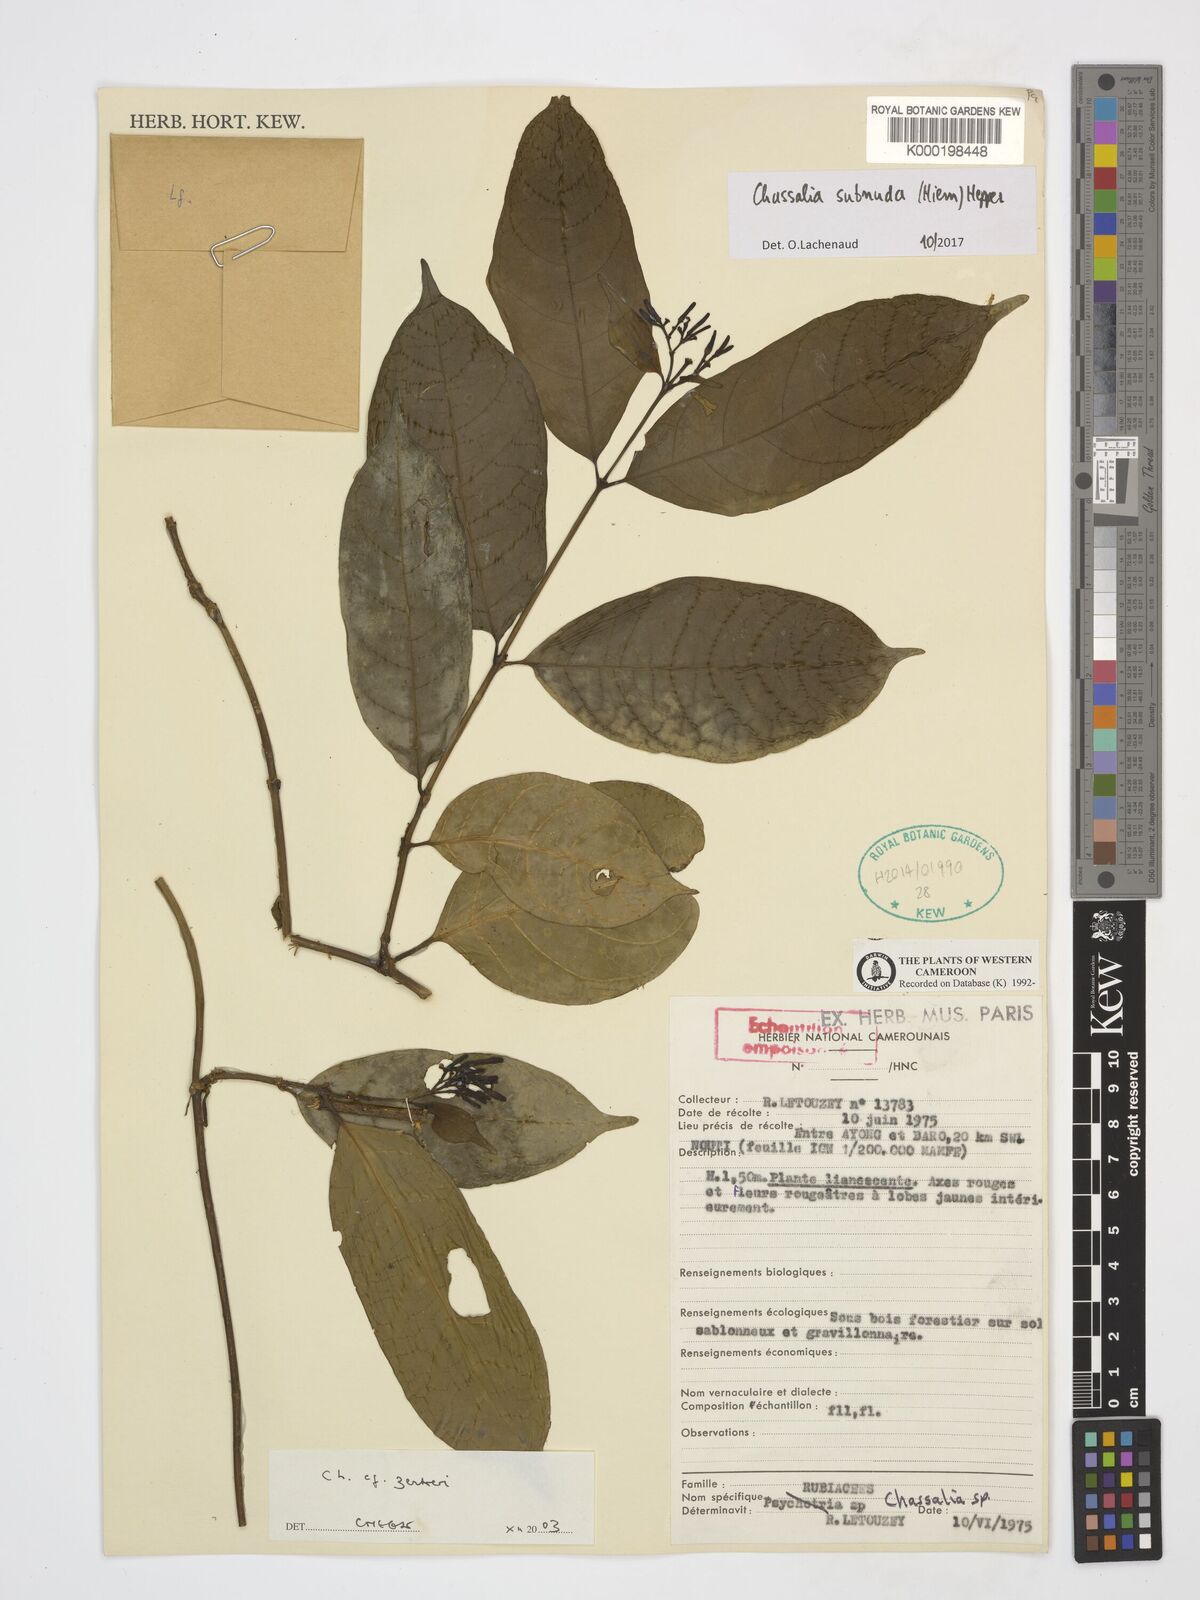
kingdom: Plantae
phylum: Tracheophyta
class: Magnoliopsida
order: Gentianales
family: Rubiaceae
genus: Chassalia
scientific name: Chassalia zenkeri
